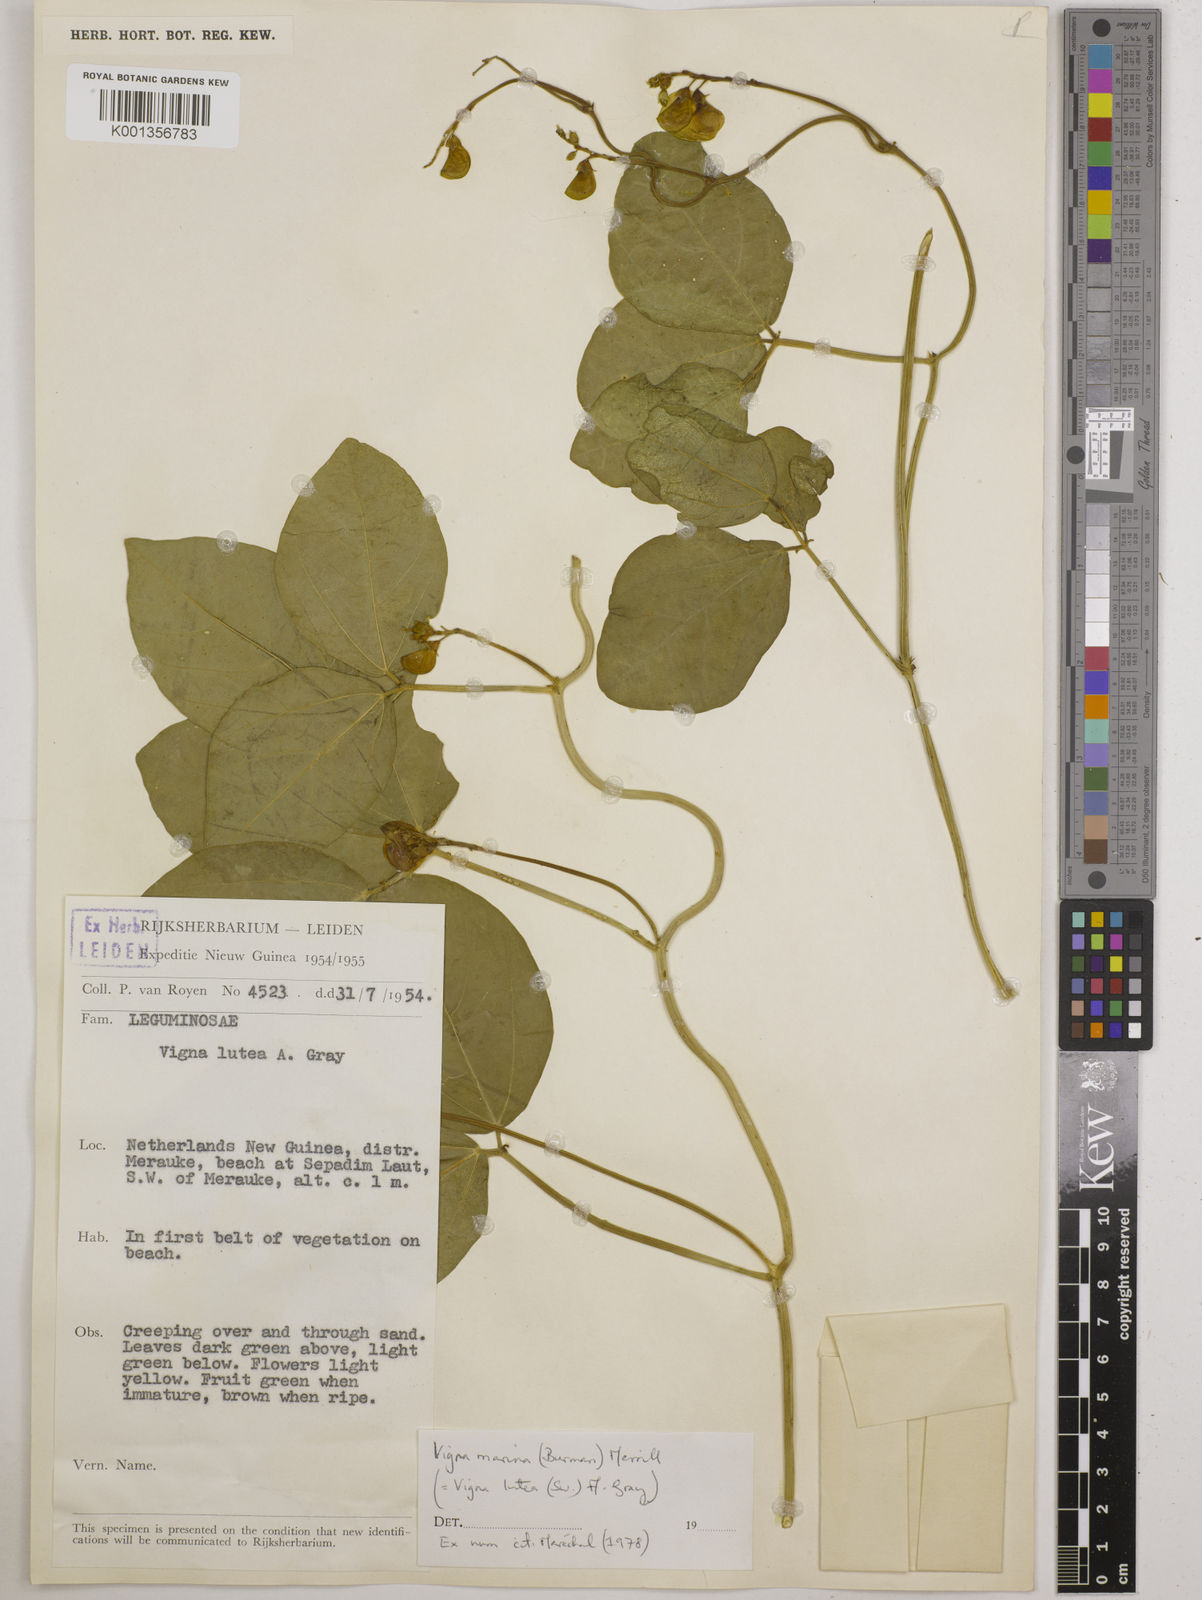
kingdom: Plantae
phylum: Tracheophyta
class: Magnoliopsida
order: Fabales
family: Fabaceae
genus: Vigna
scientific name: Vigna marina
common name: Dune-bean
